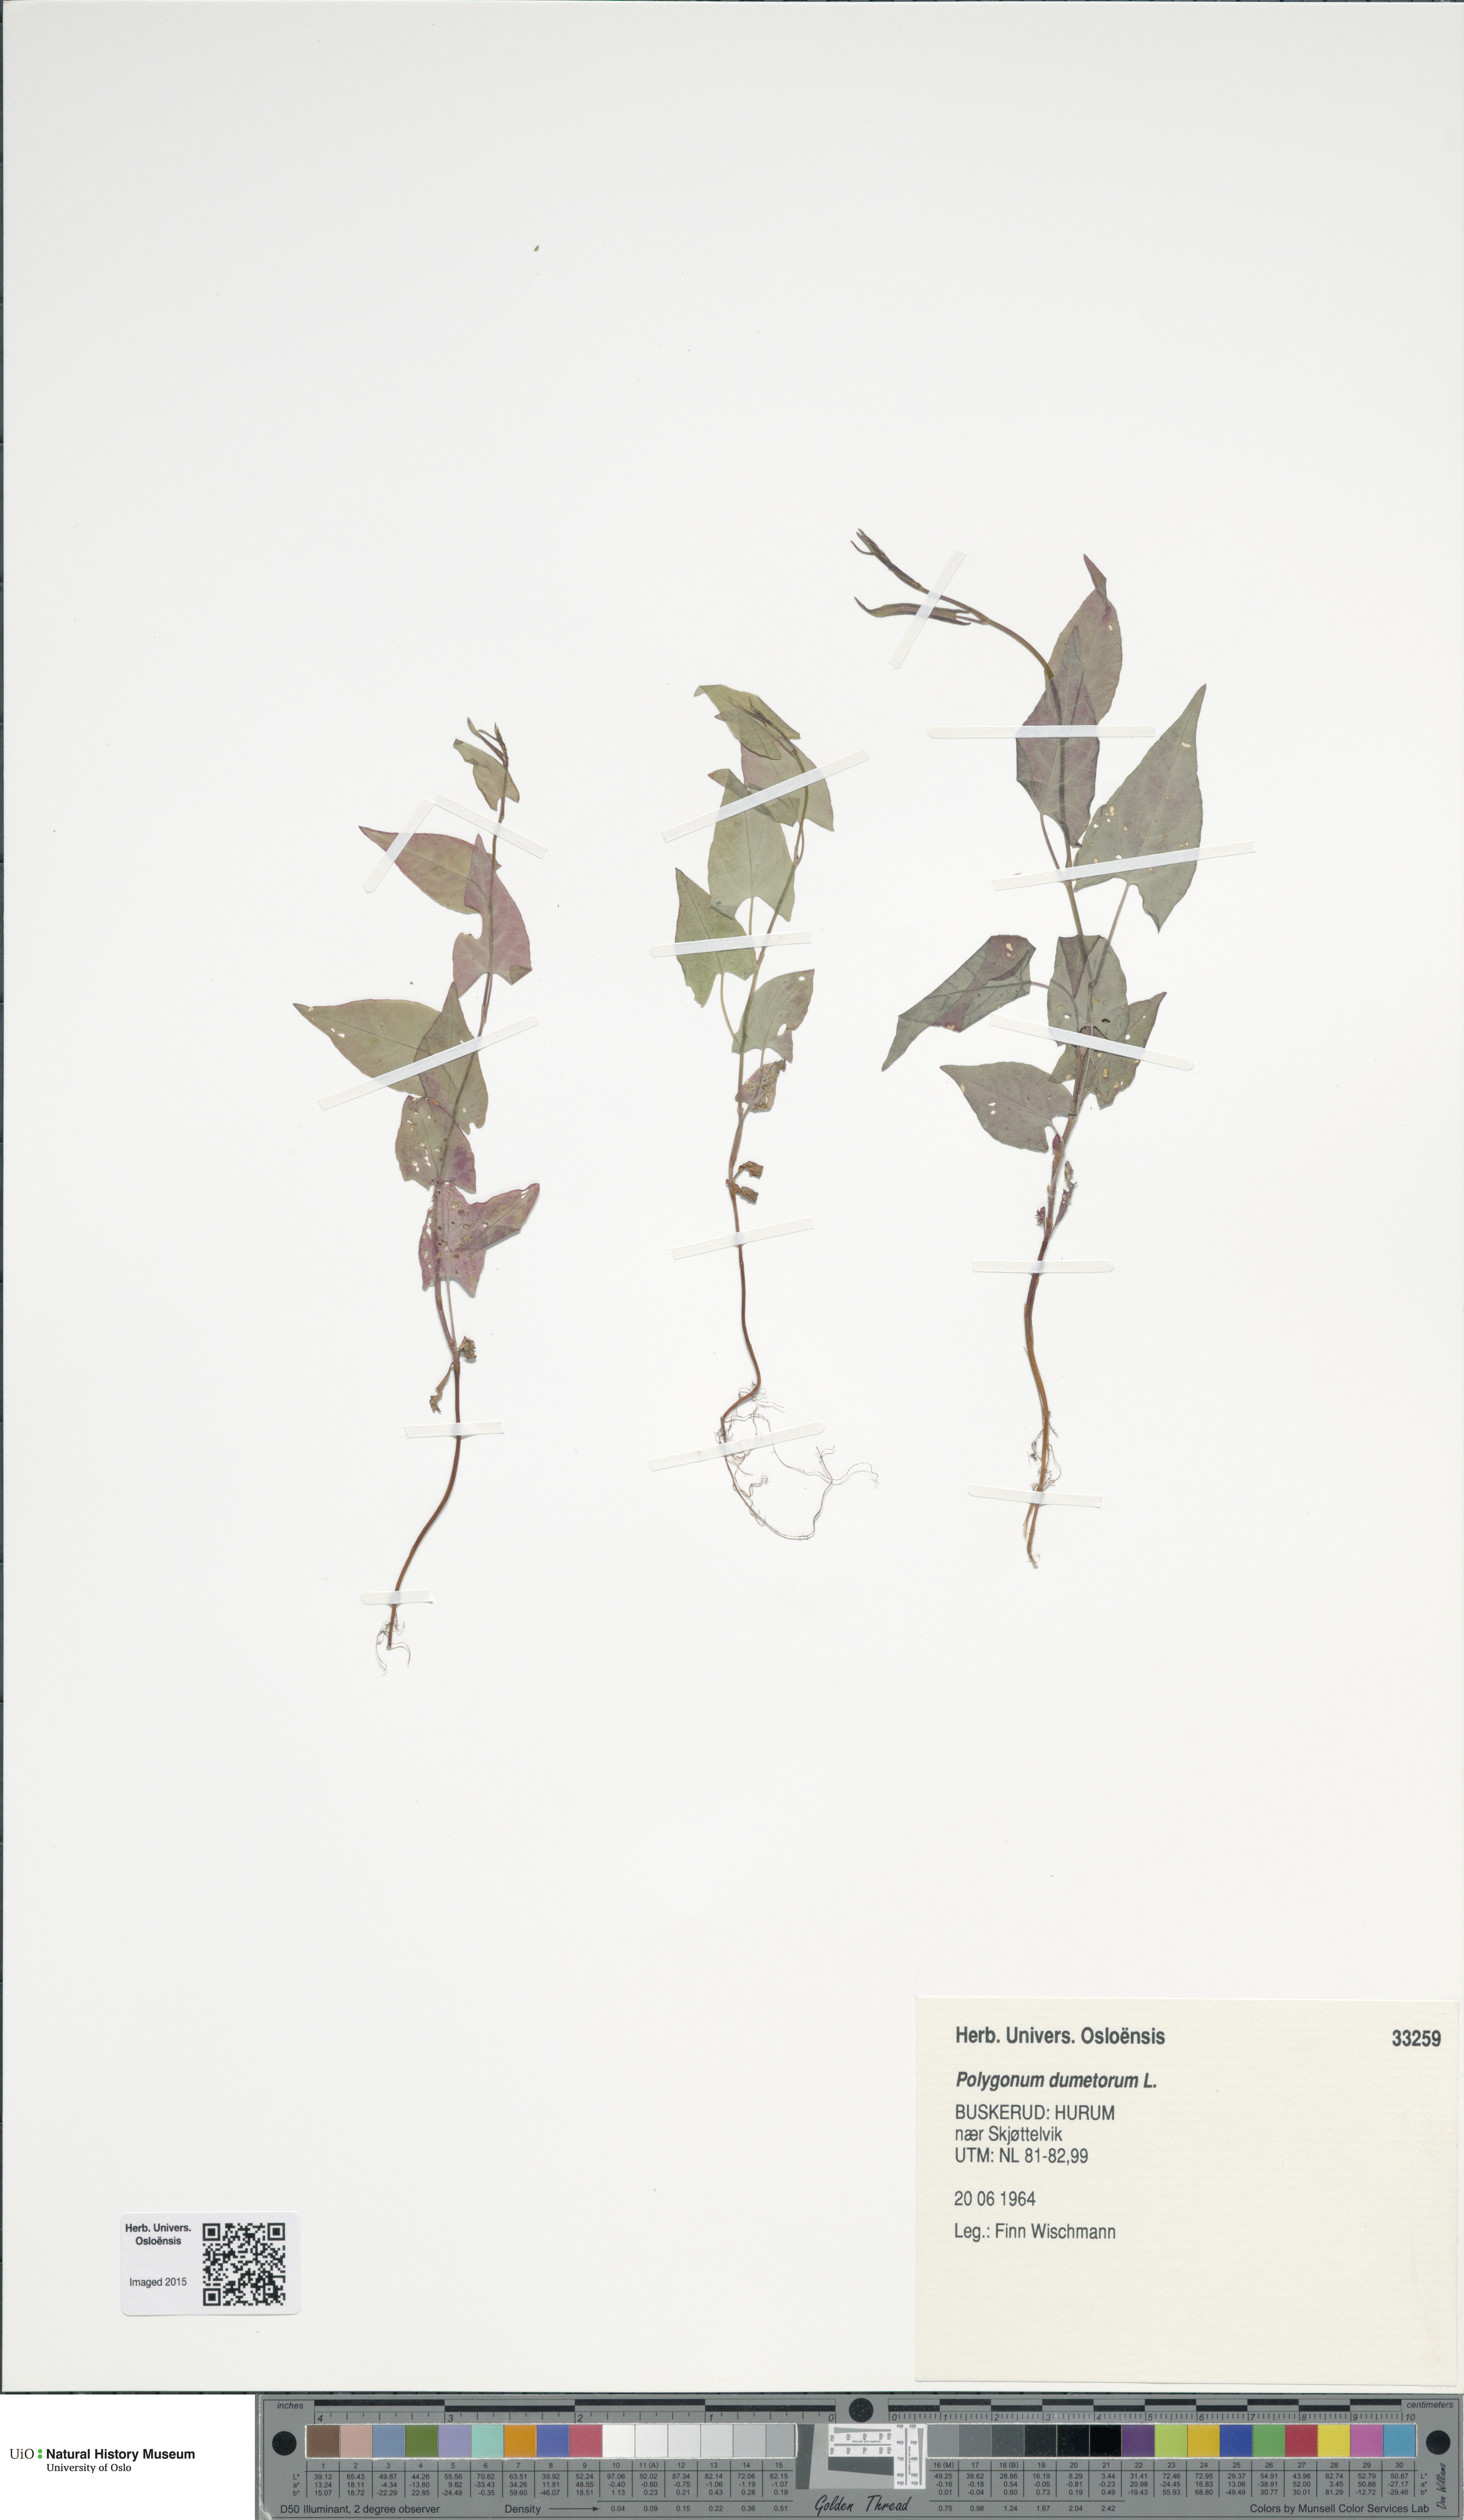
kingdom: Plantae
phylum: Tracheophyta
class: Magnoliopsida
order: Caryophyllales
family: Polygonaceae
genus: Fallopia
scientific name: Fallopia dumetorum
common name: Copse-bindweed
